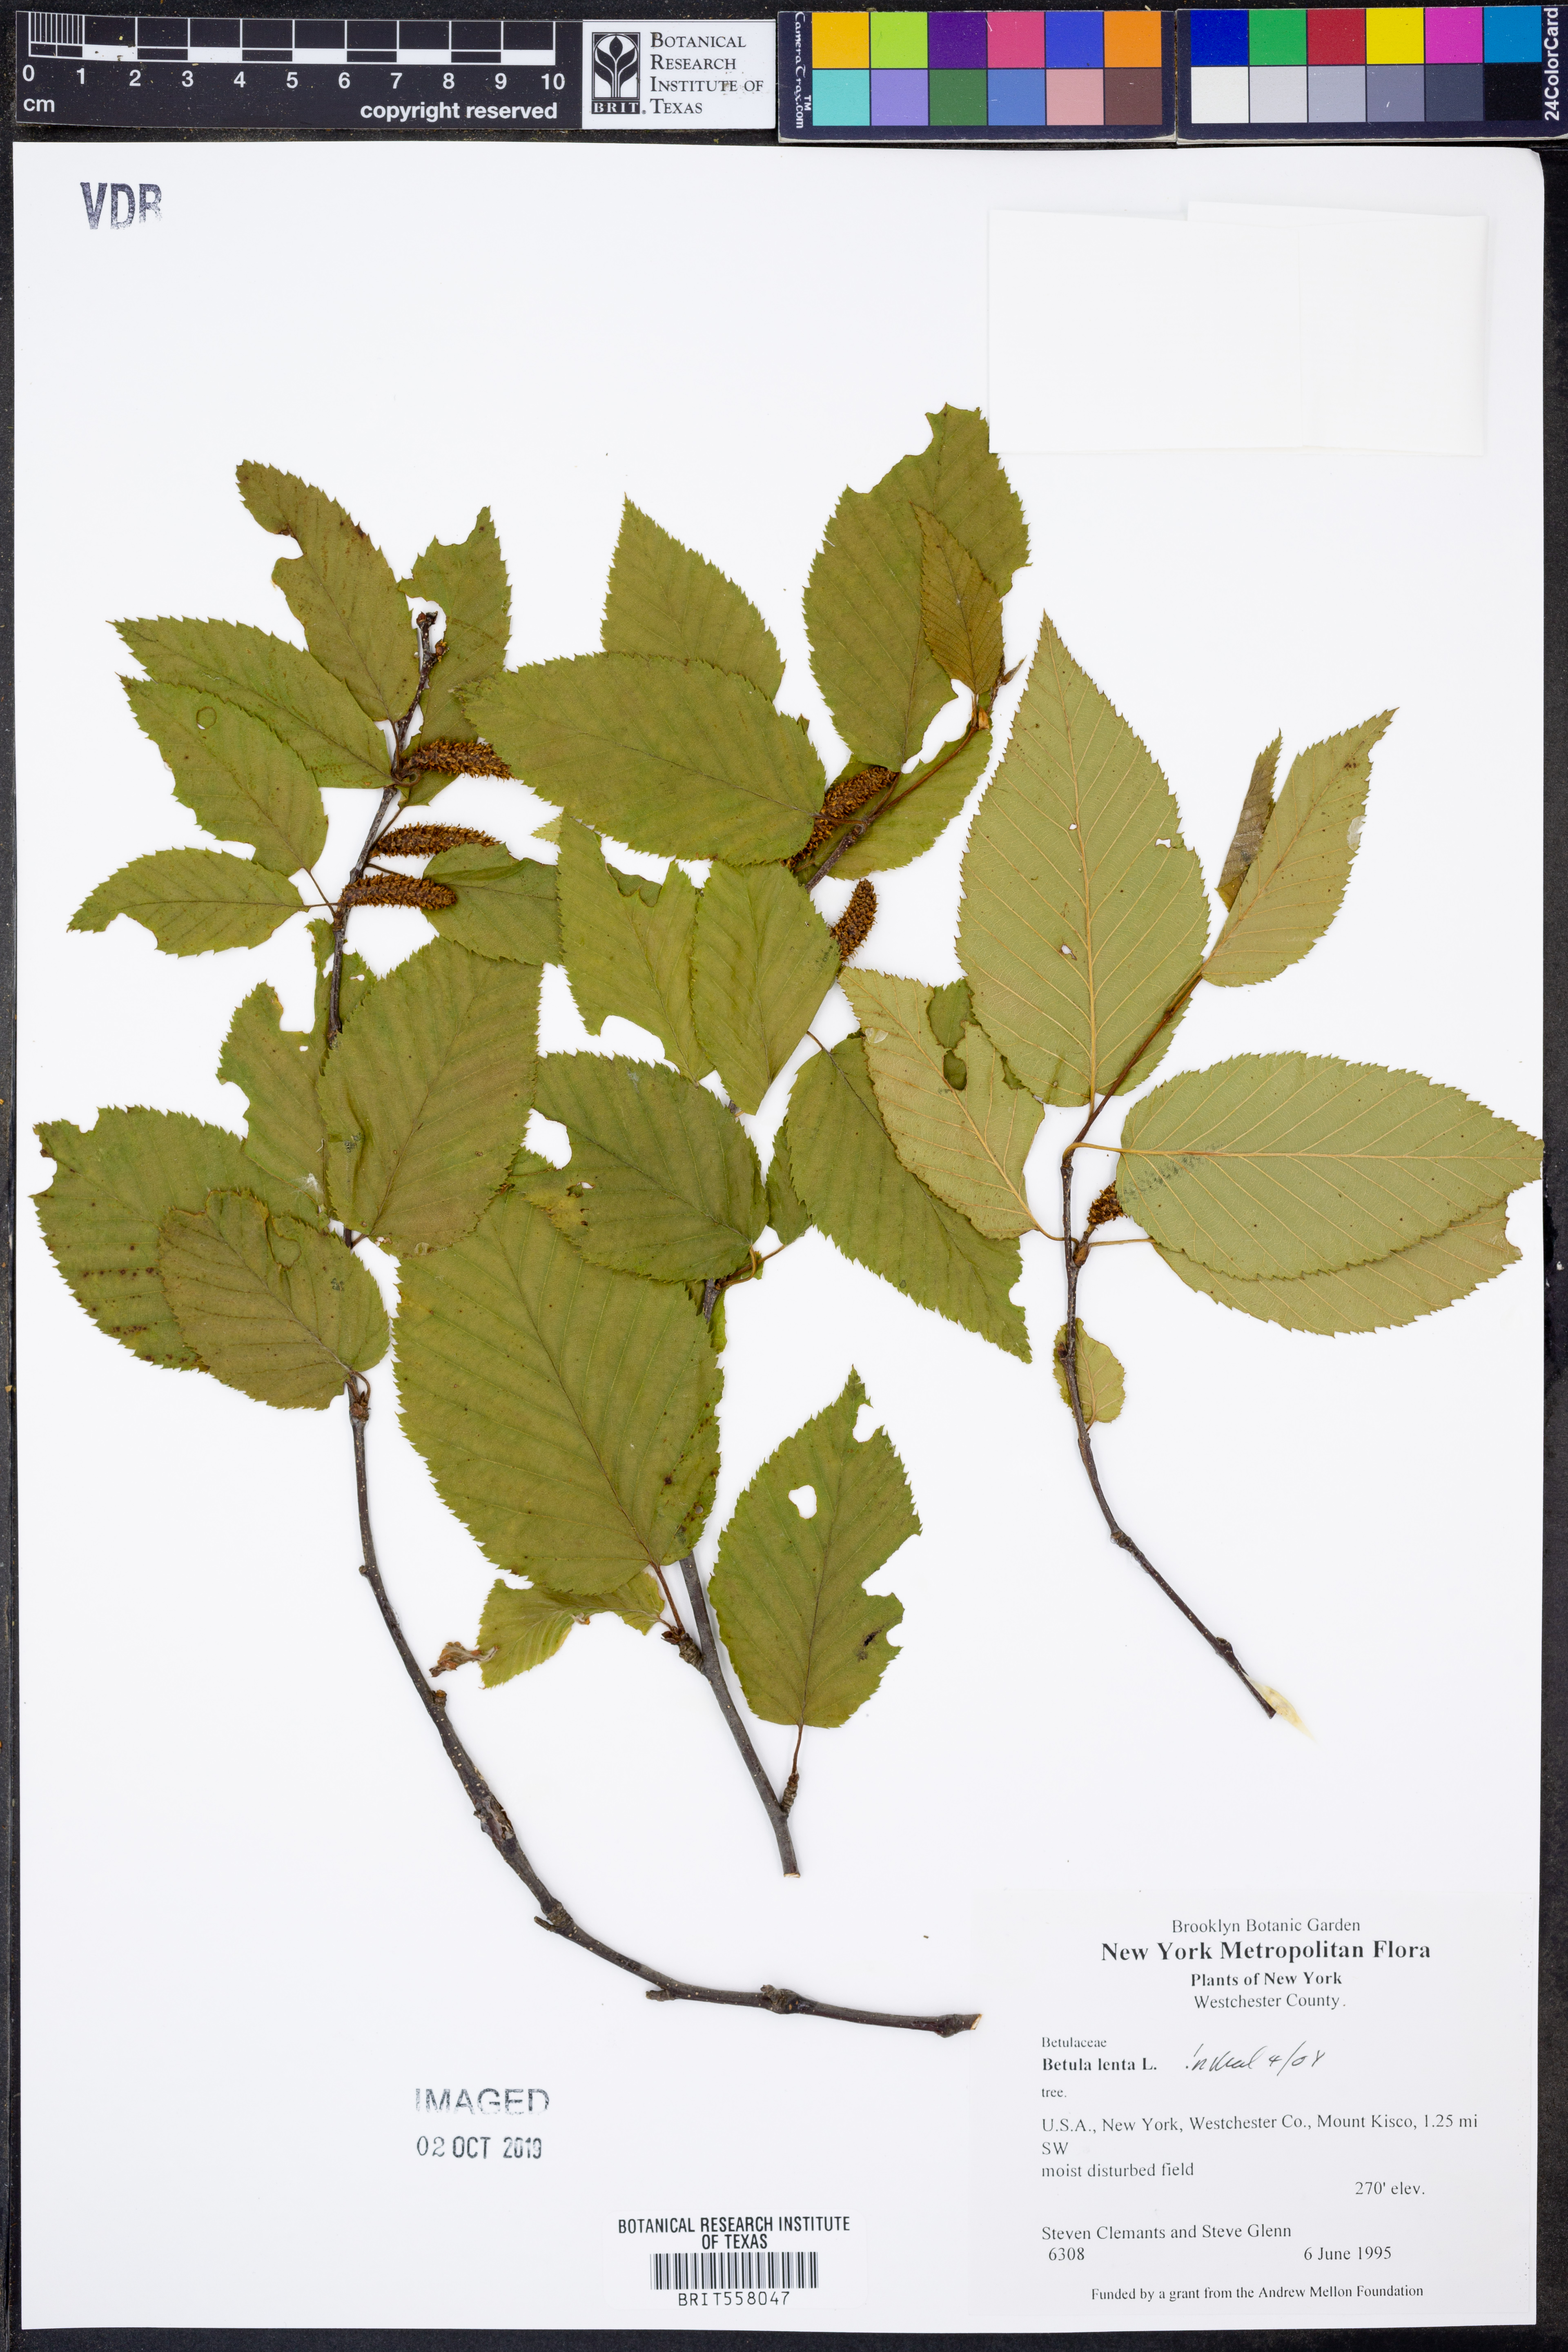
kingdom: Plantae
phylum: Tracheophyta
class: Magnoliopsida
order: Fagales
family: Betulaceae
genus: Betula
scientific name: Betula lenta
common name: Black birch
